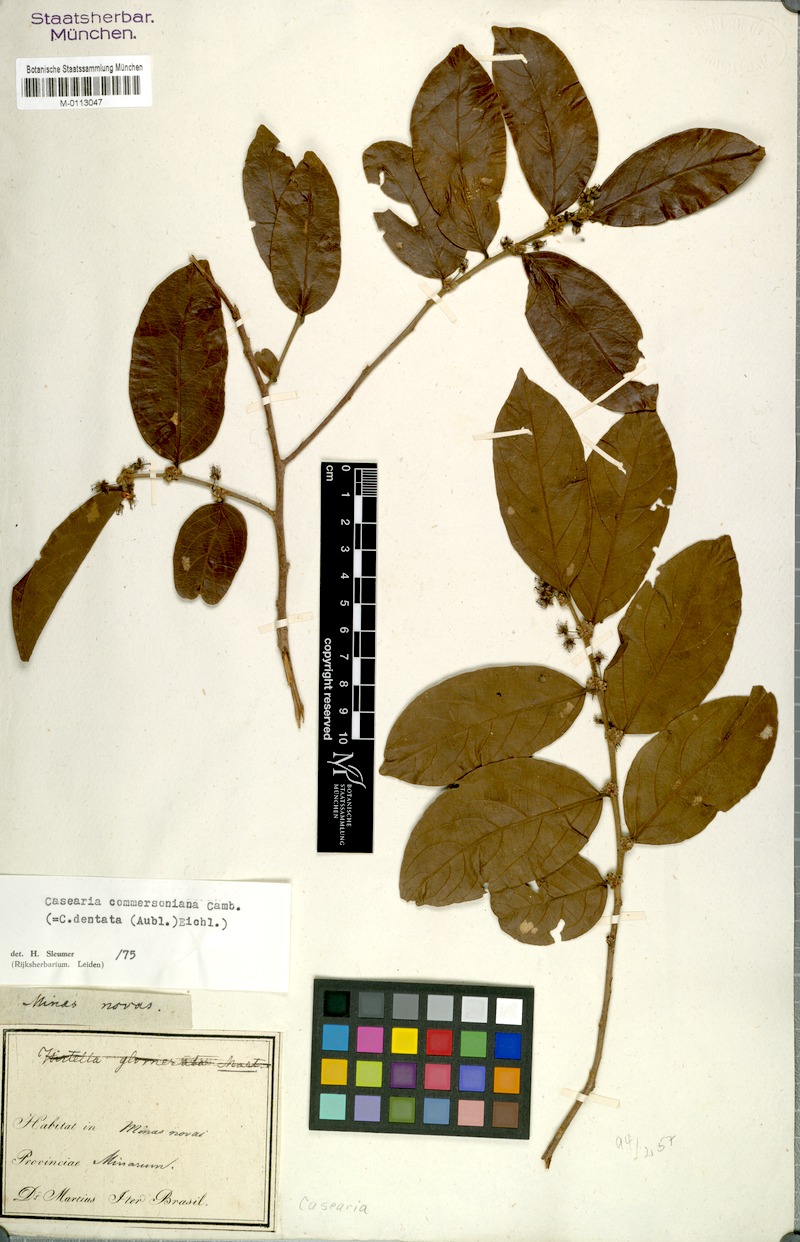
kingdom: Plantae
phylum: Tracheophyta
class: Magnoliopsida
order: Malpighiales
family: Salicaceae
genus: Piparea
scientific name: Piparea dentata
